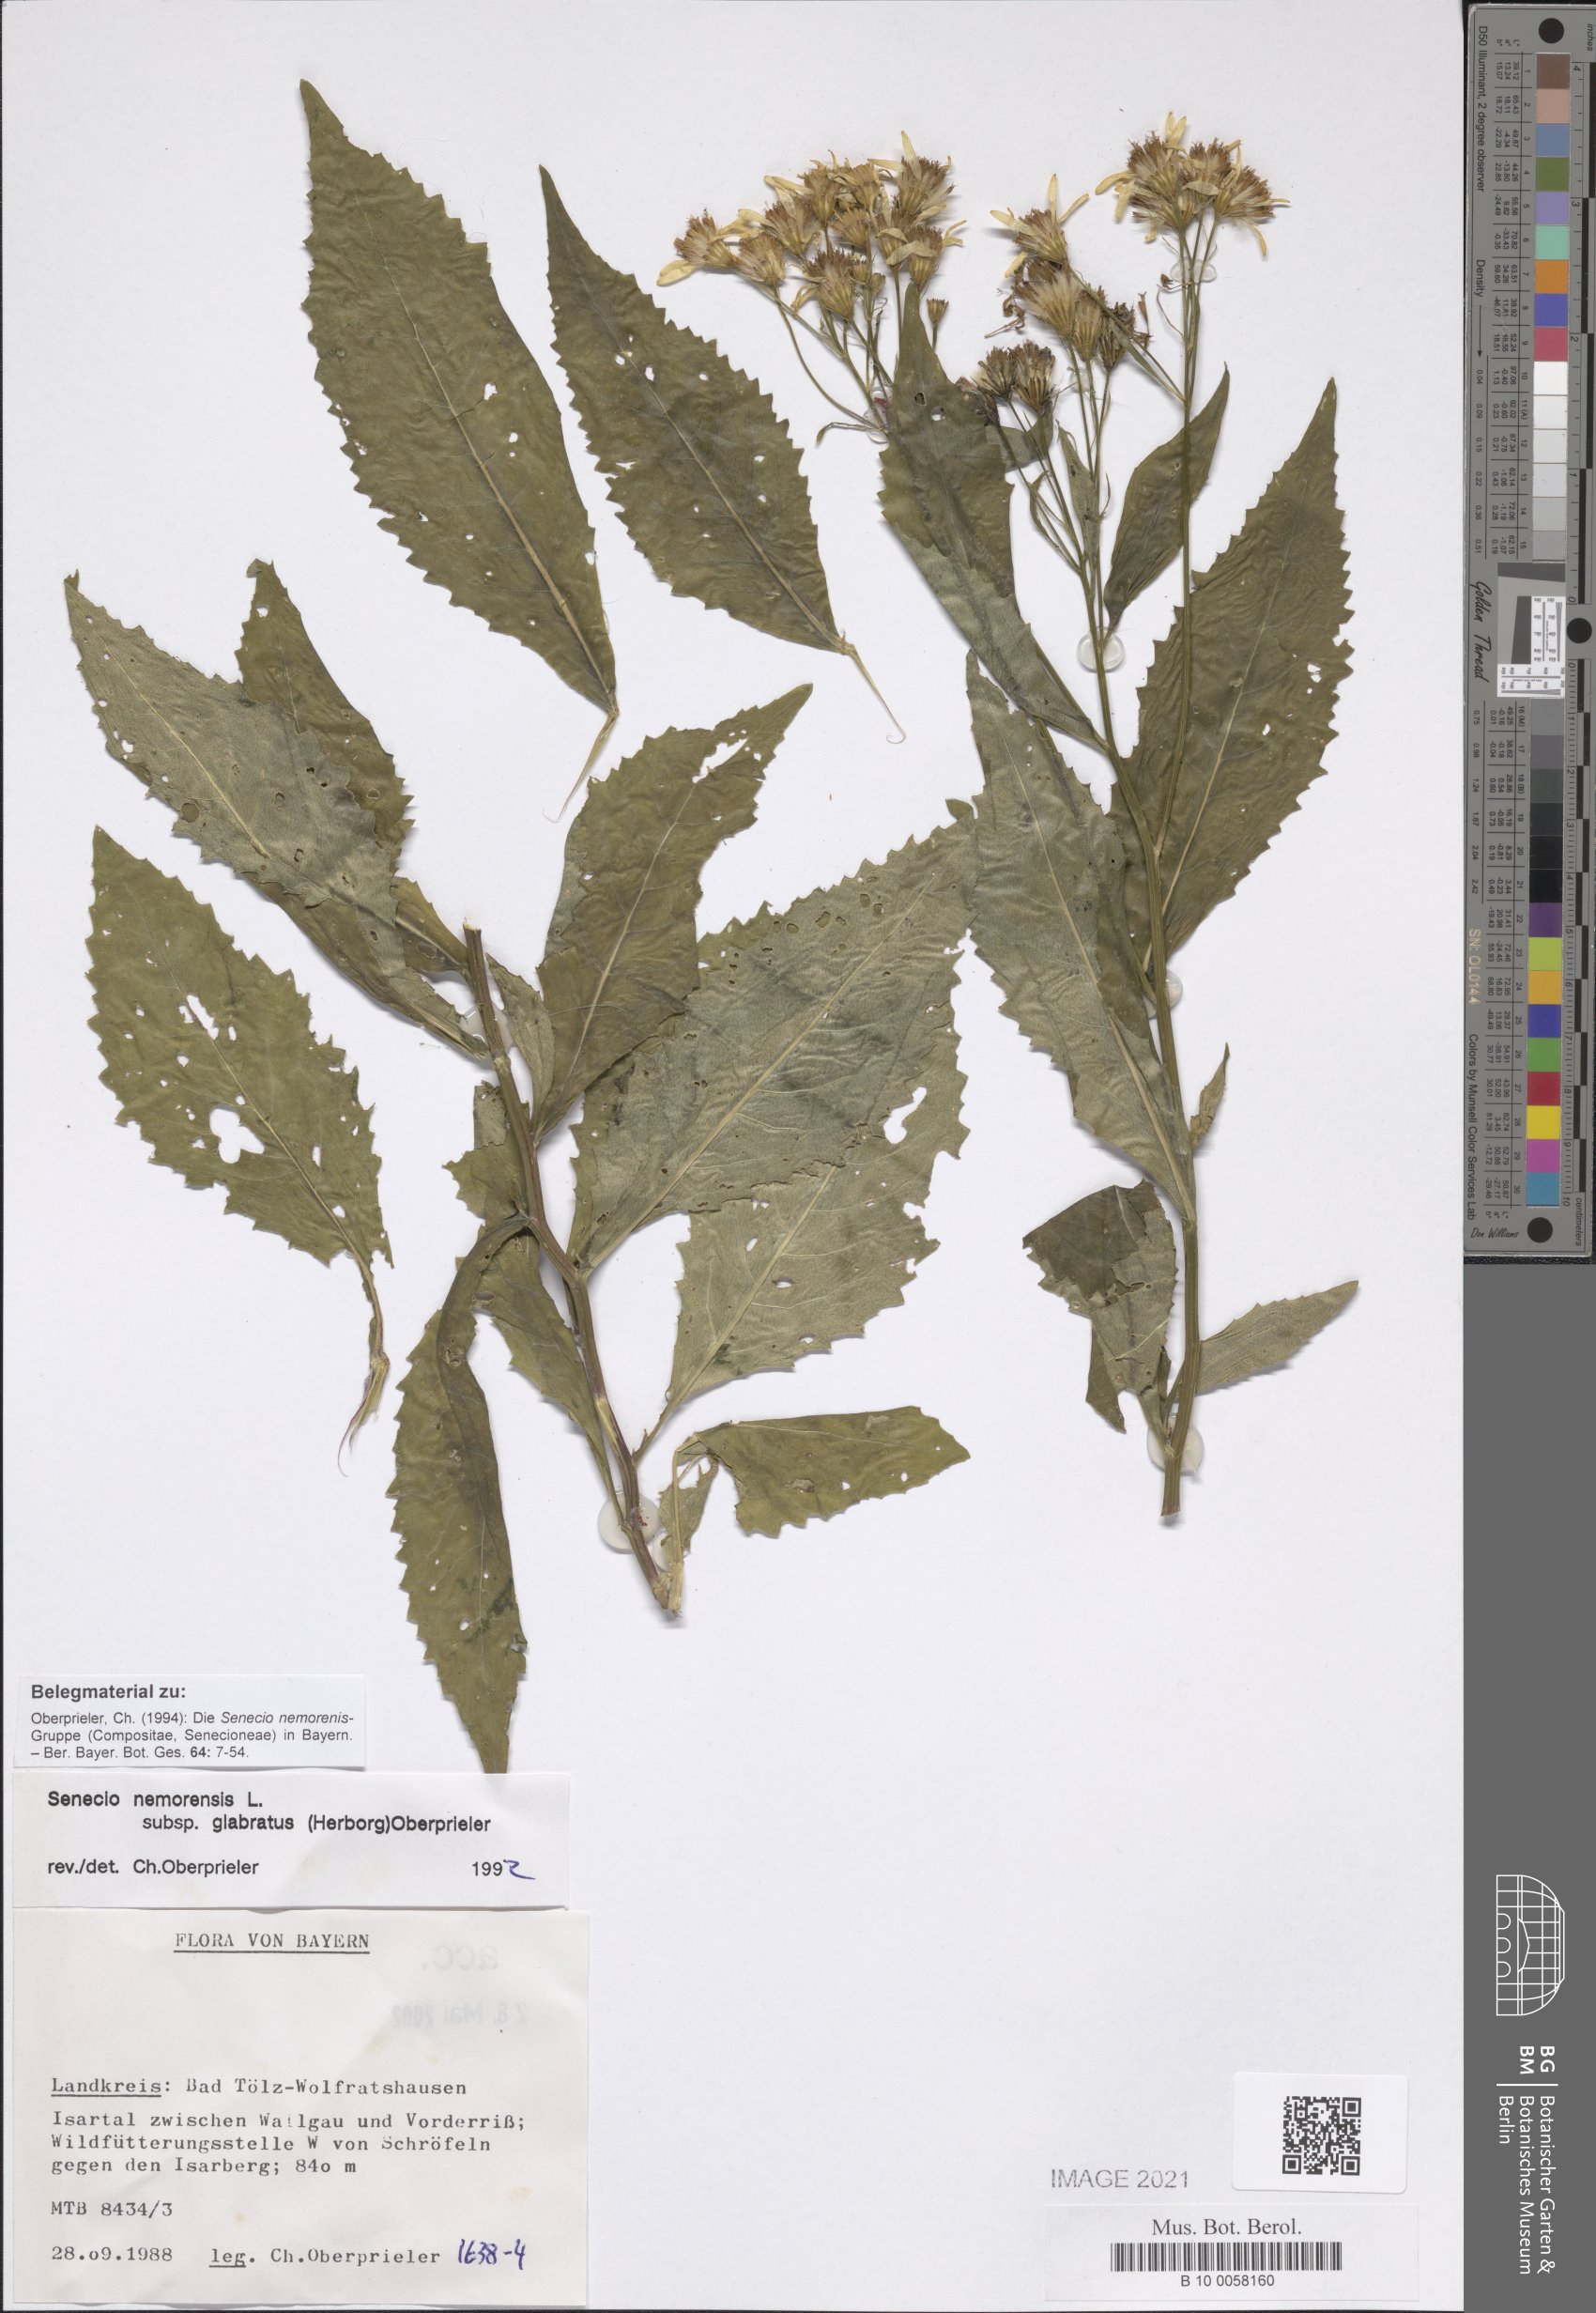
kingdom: Plantae
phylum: Tracheophyta
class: Magnoliopsida
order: Asterales
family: Asteraceae
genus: Senecio
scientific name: Senecio germanicus
